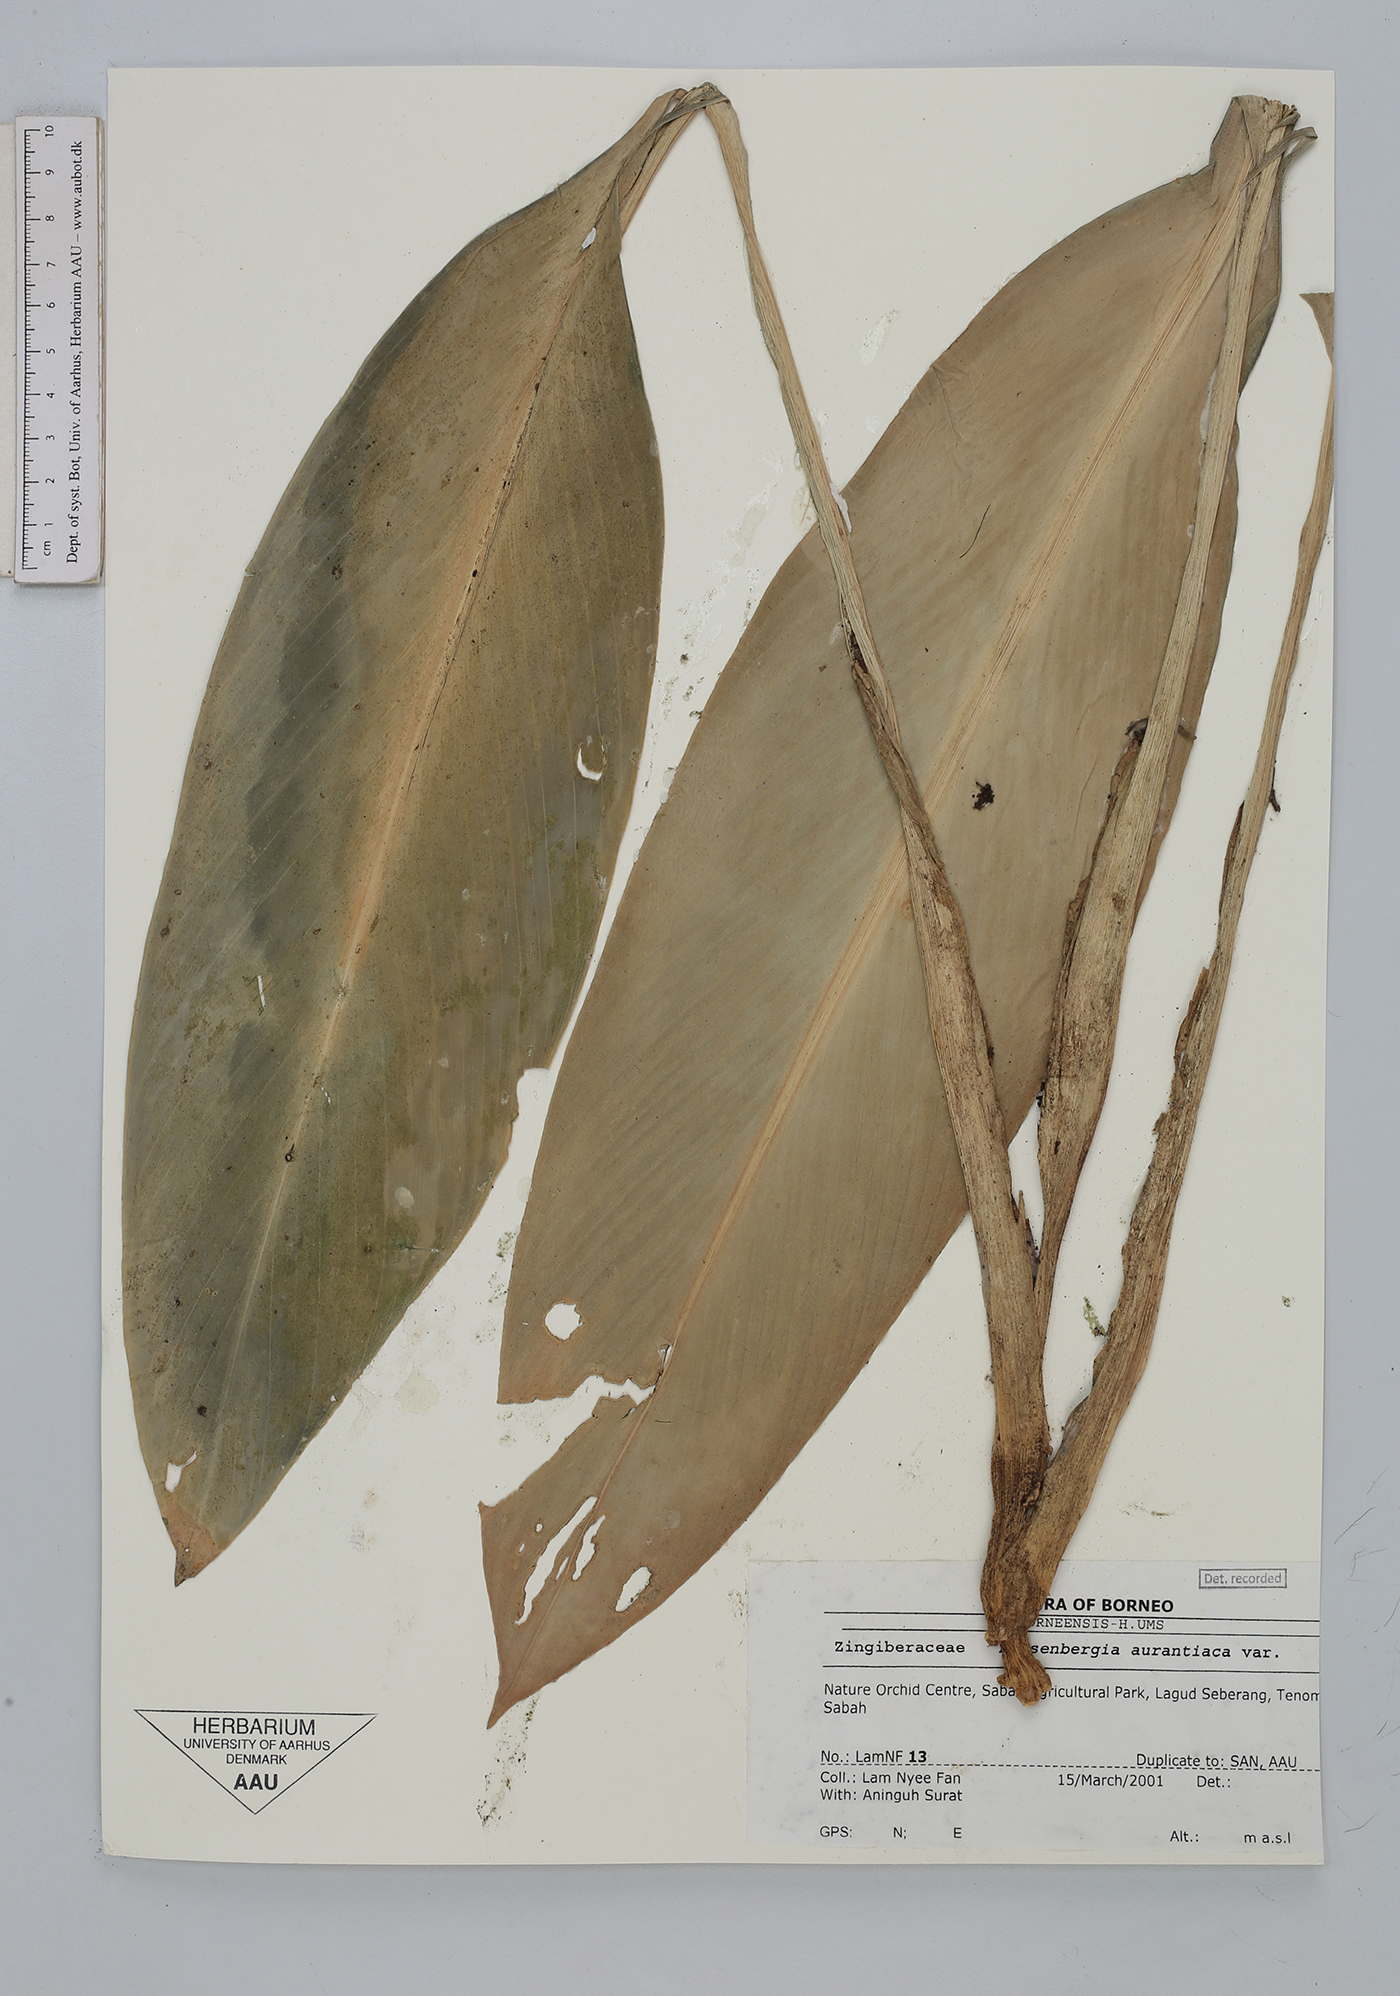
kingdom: Plantae
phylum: Tracheophyta
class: Liliopsida
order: Zingiberales
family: Zingiberaceae
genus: Boesenbergia
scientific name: Boesenbergia aurantiaca
